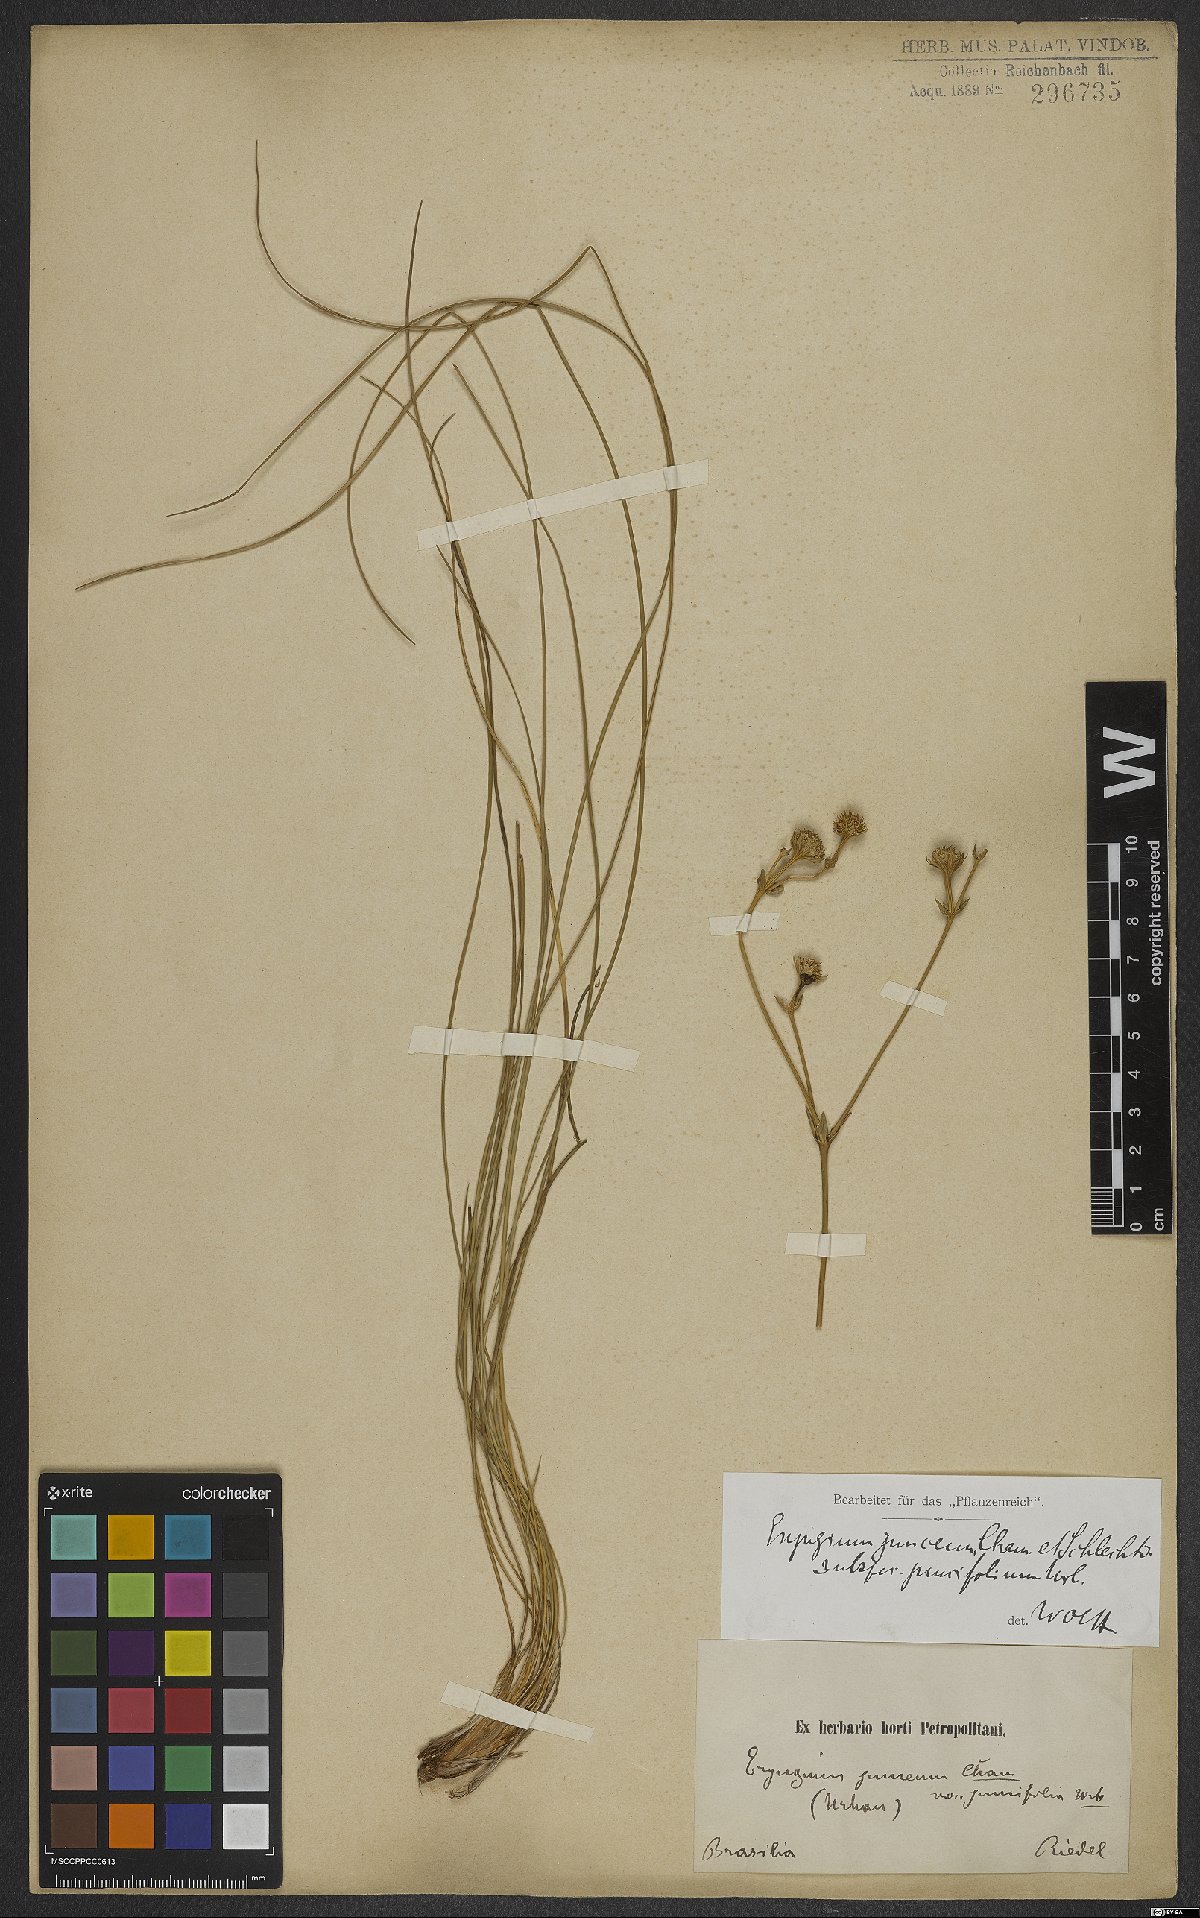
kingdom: Plantae
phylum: Tracheophyta
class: Magnoliopsida
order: Apiales
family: Apiaceae
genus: Eryngium
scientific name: Eryngium juncifolium
